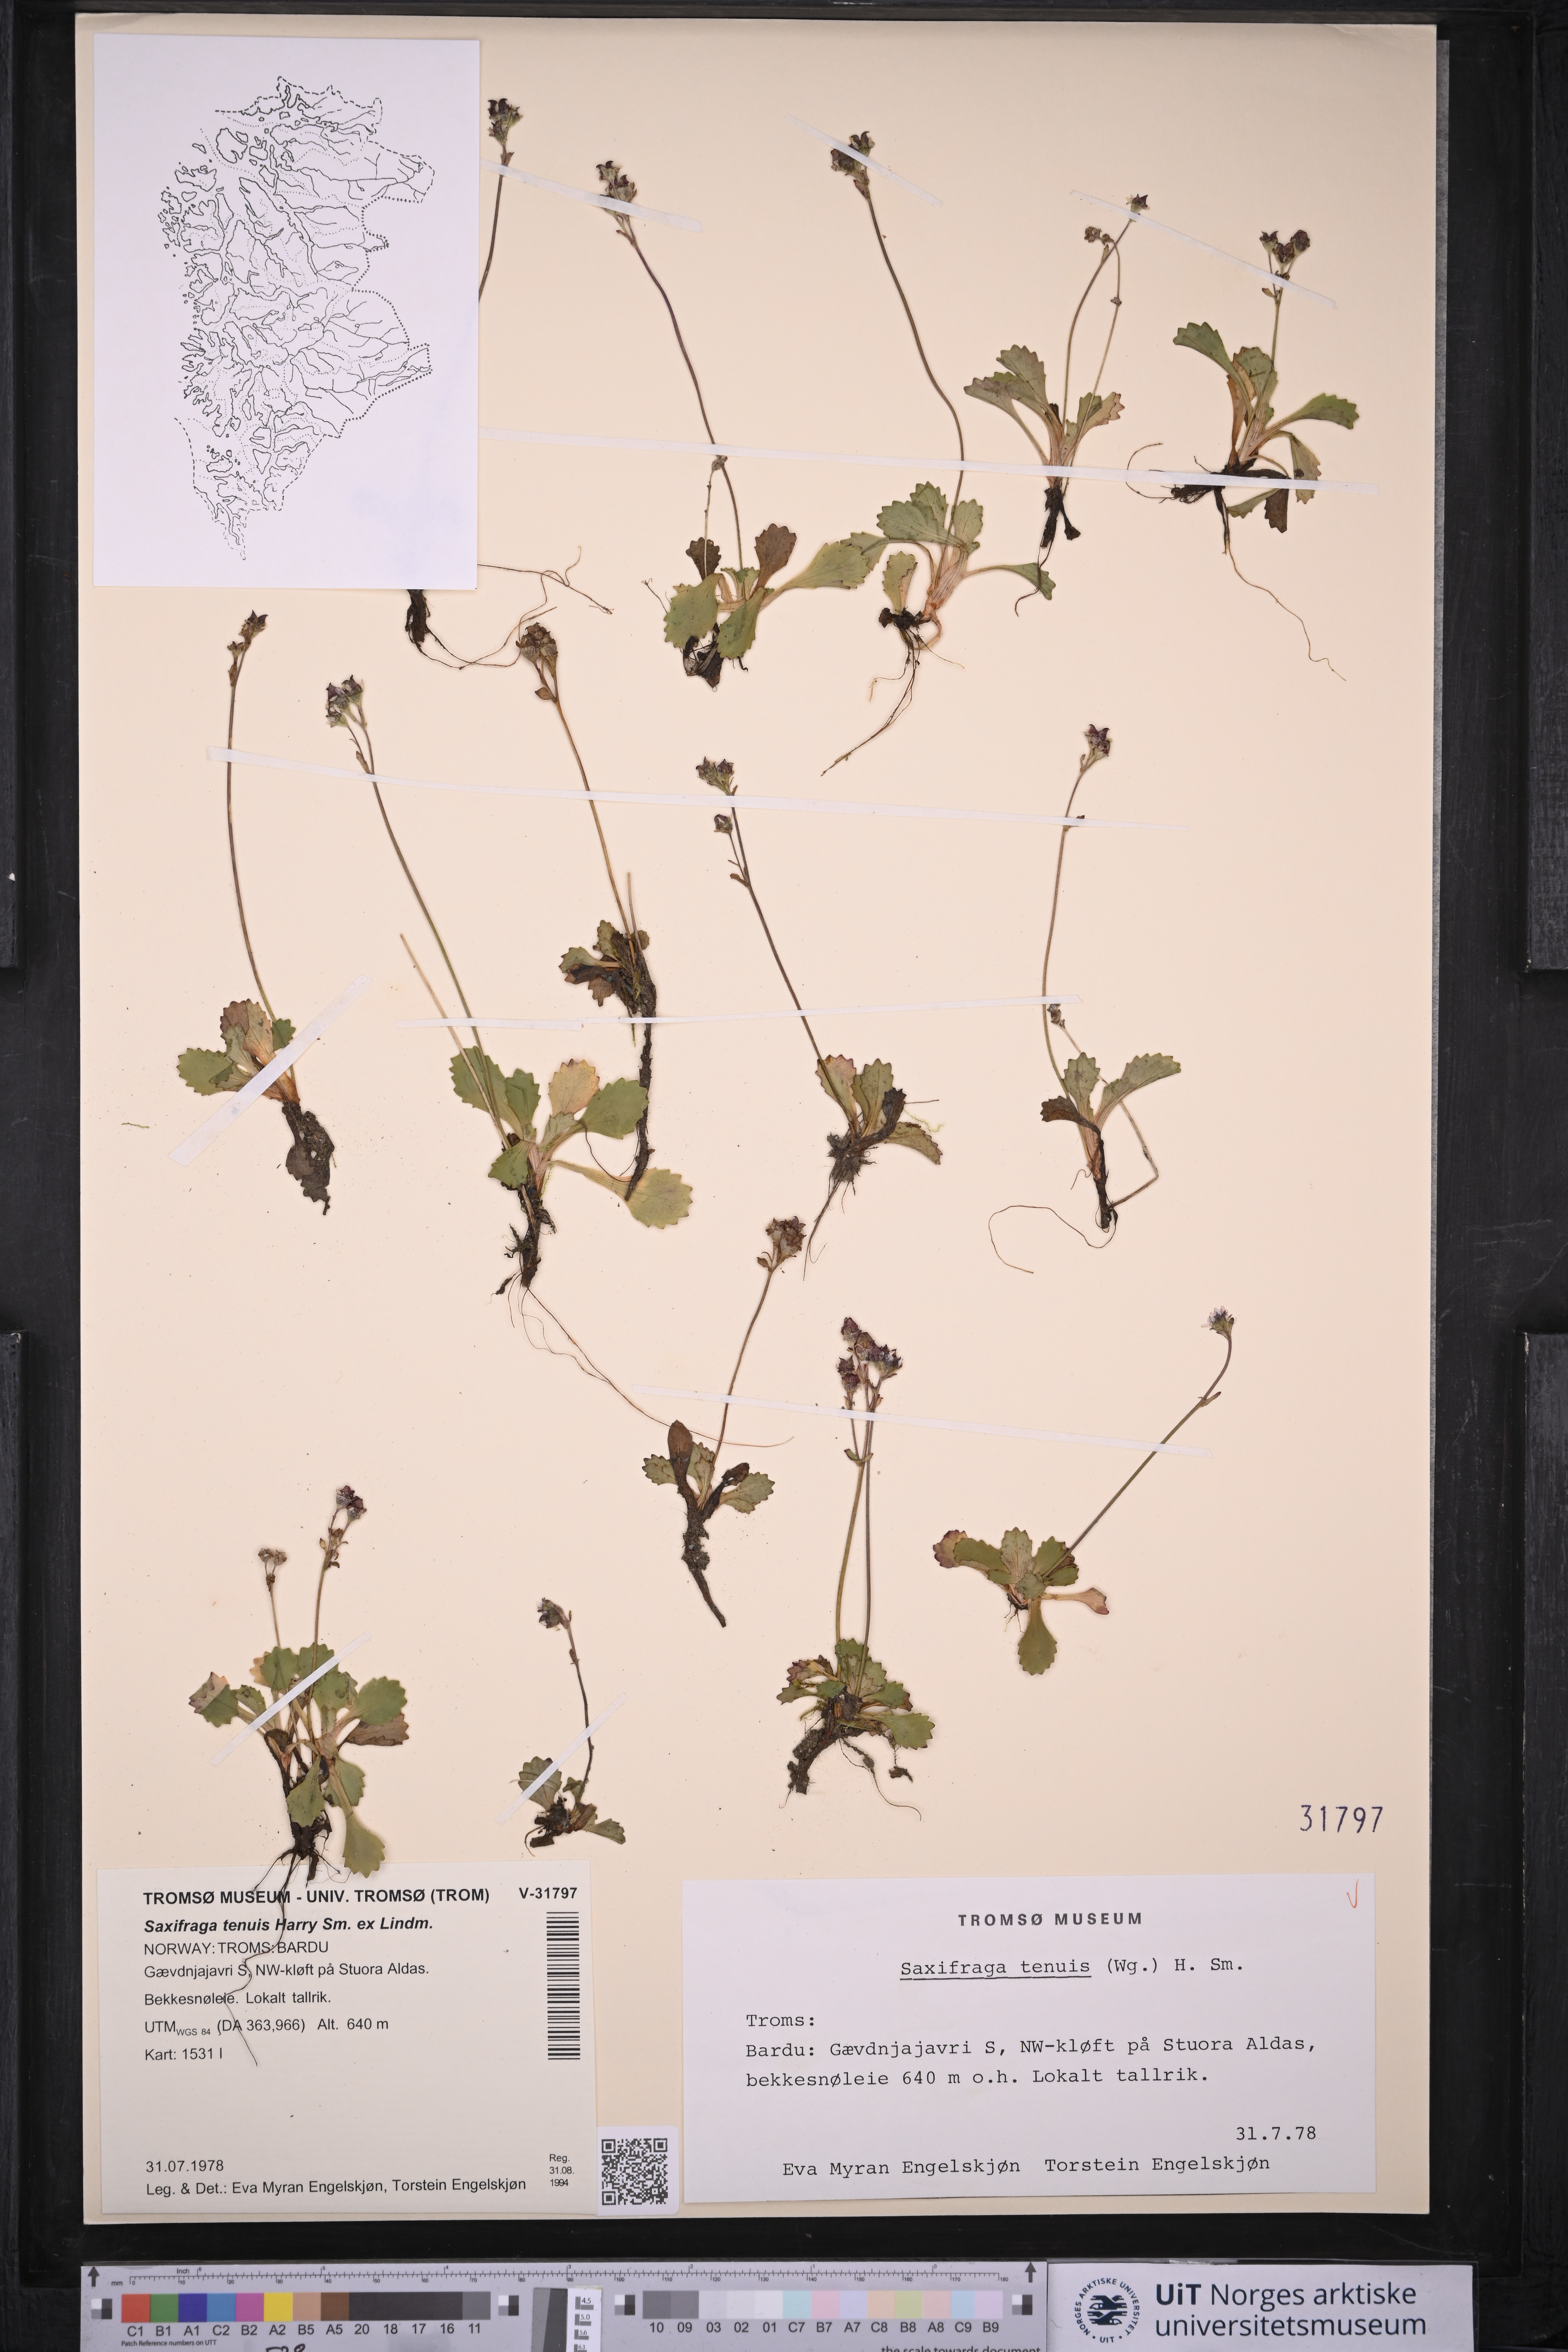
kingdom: Plantae
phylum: Tracheophyta
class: Magnoliopsida
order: Saxifragales
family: Saxifragaceae
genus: Micranthes
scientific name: Micranthes tenuis
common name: Ottertail pass saxifrage
